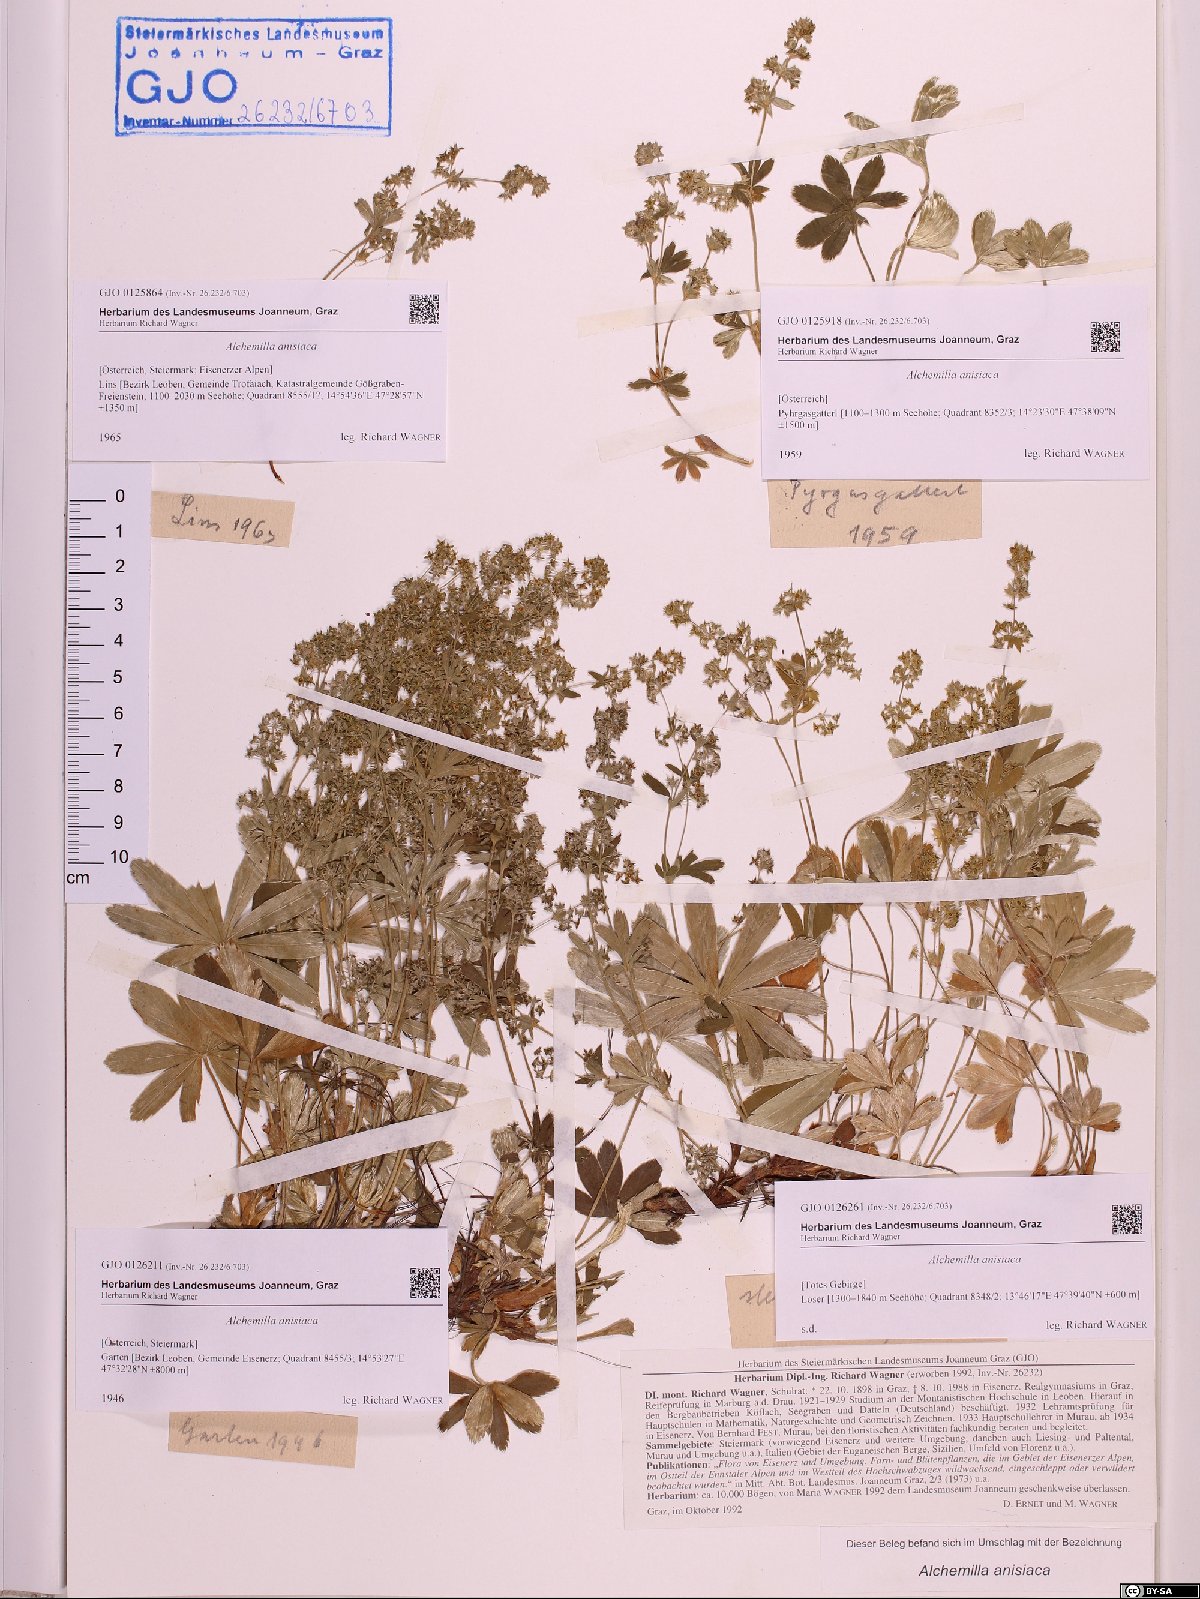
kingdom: Plantae
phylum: Tracheophyta
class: Magnoliopsida
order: Rosales
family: Rosaceae
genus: Alchemilla
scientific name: Alchemilla anisiaca
